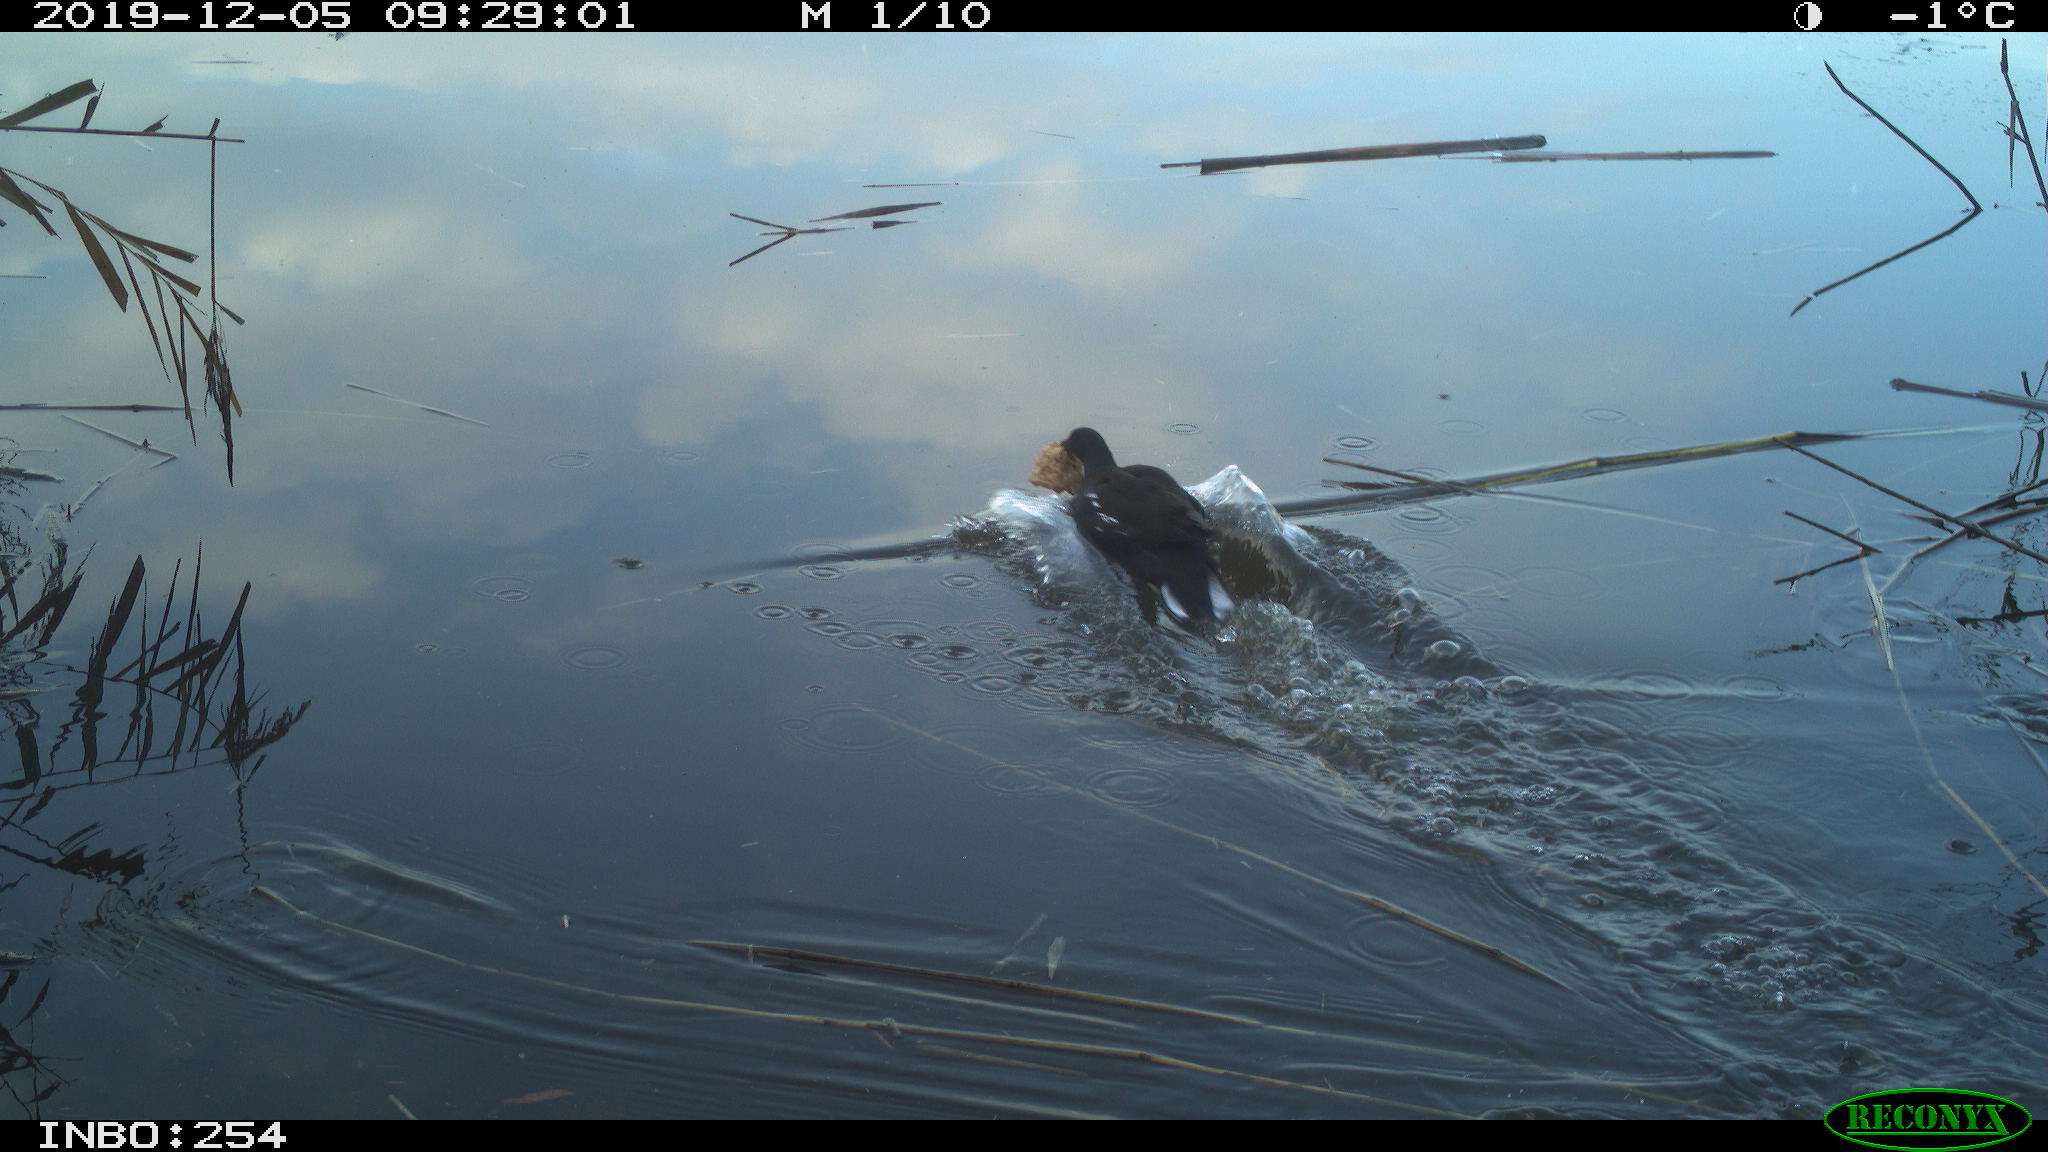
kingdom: Animalia
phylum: Chordata
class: Aves
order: Gruiformes
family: Rallidae
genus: Gallinula
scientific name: Gallinula chloropus
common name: Common moorhen
